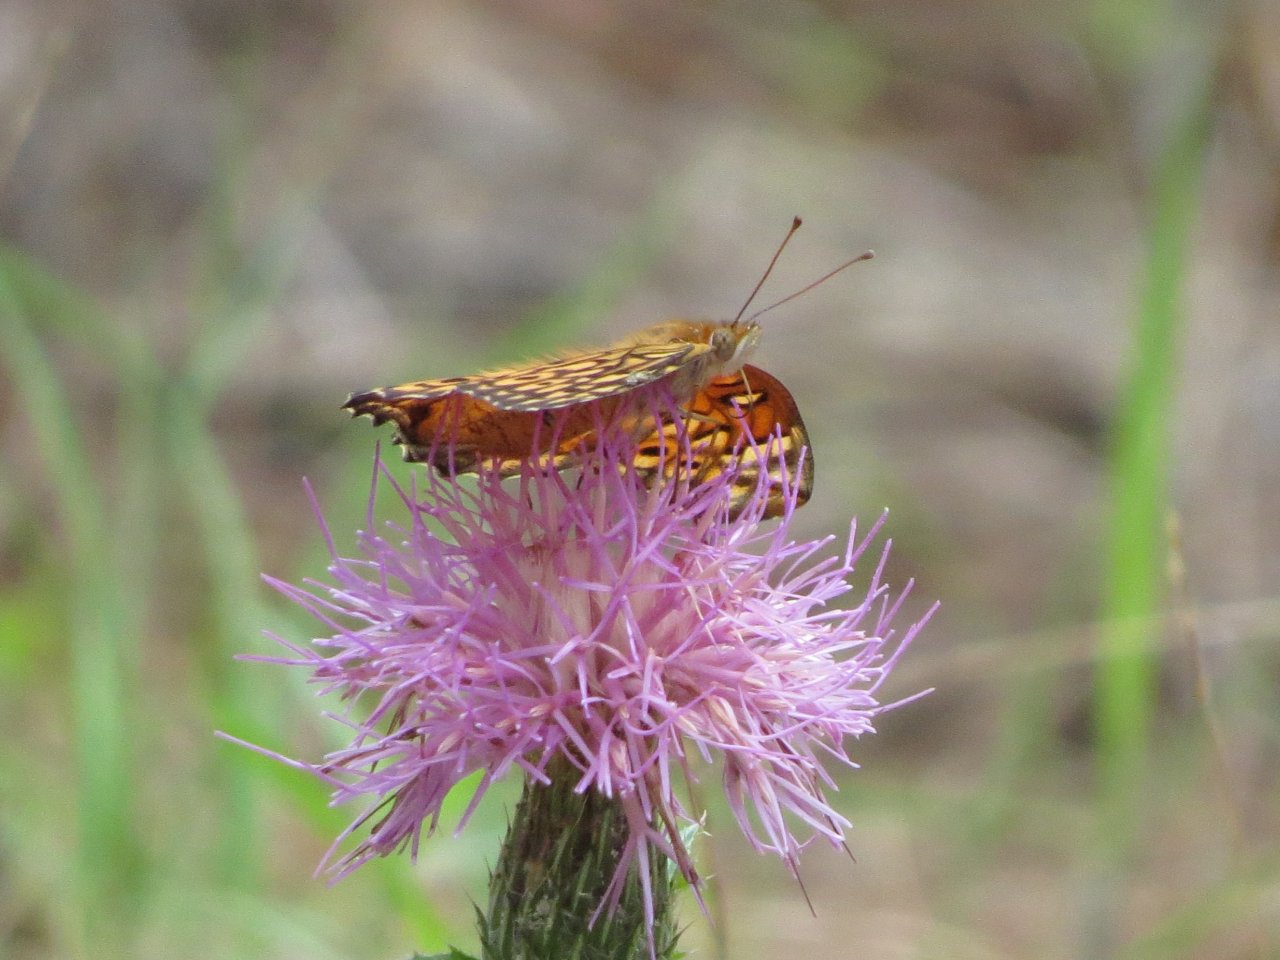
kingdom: Animalia
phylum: Arthropoda
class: Insecta
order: Lepidoptera
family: Nymphalidae
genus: Euptoieta
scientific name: Euptoieta claudia
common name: Variegated Fritillary
